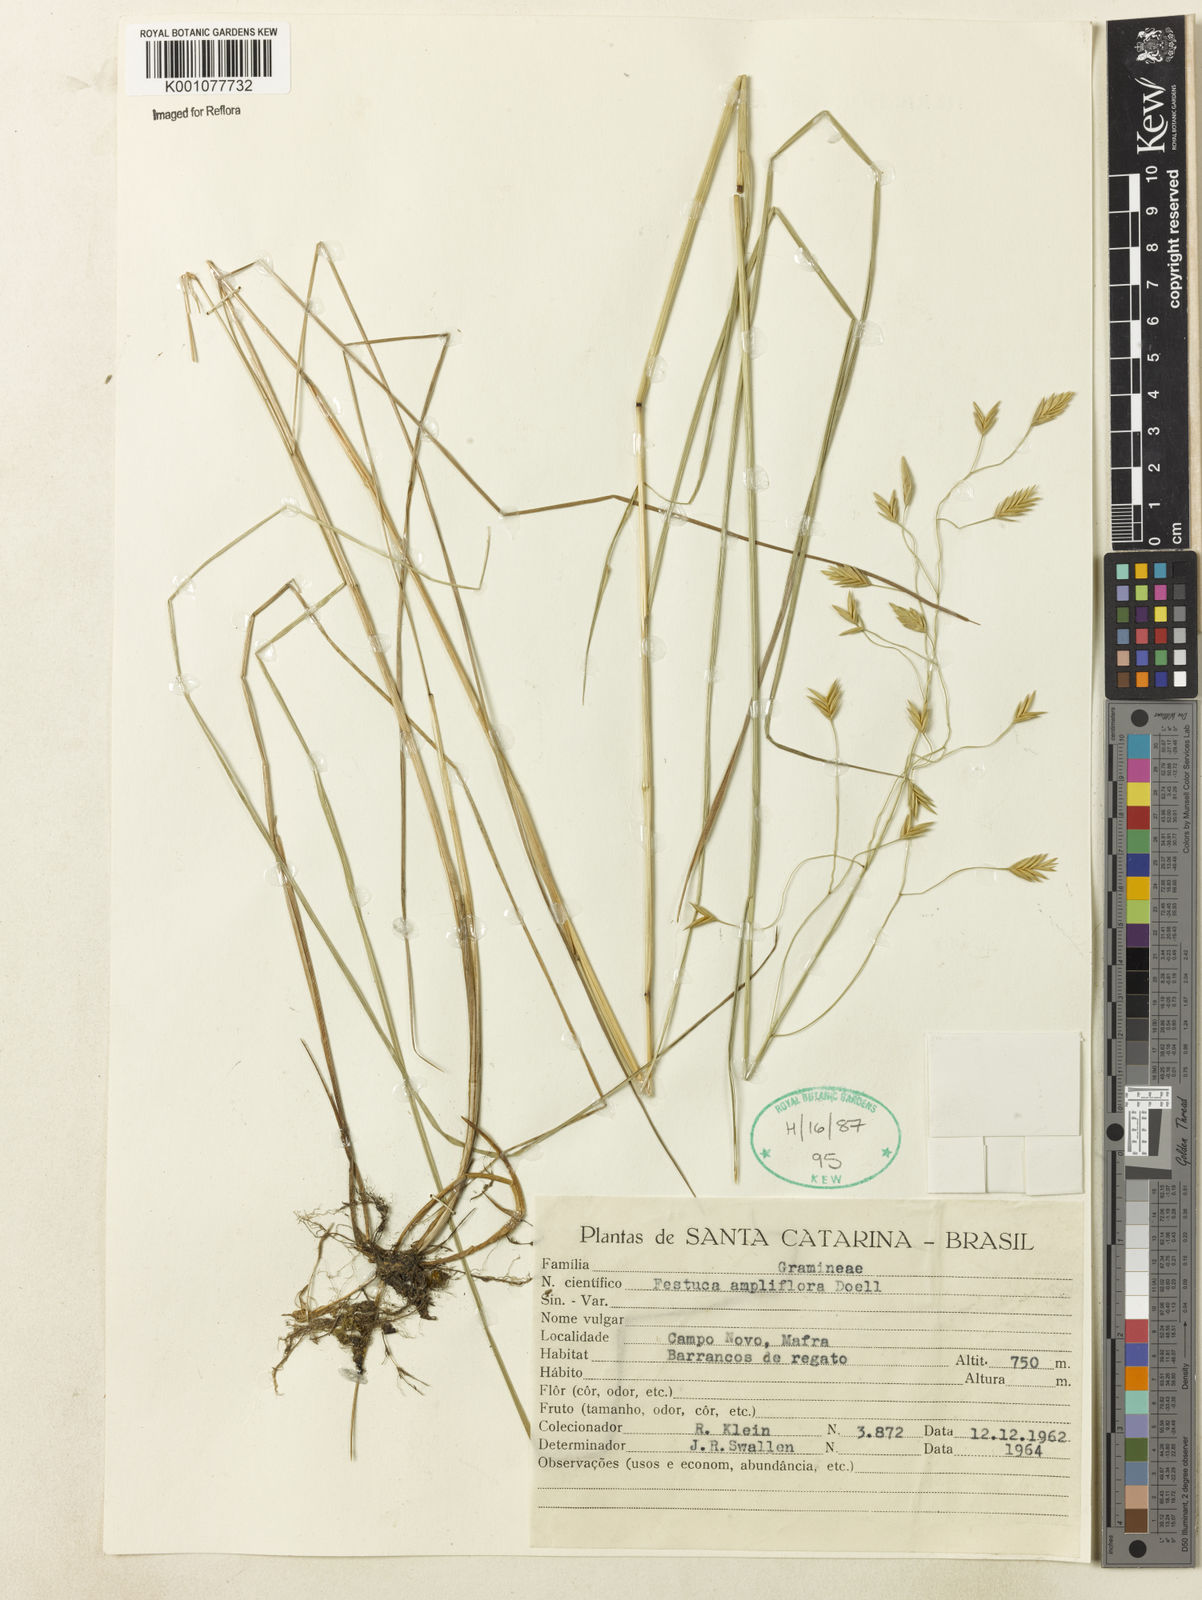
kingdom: Plantae
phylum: Tracheophyta
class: Liliopsida
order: Poales
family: Poaceae
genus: Festuca
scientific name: Festuca fimbriata
